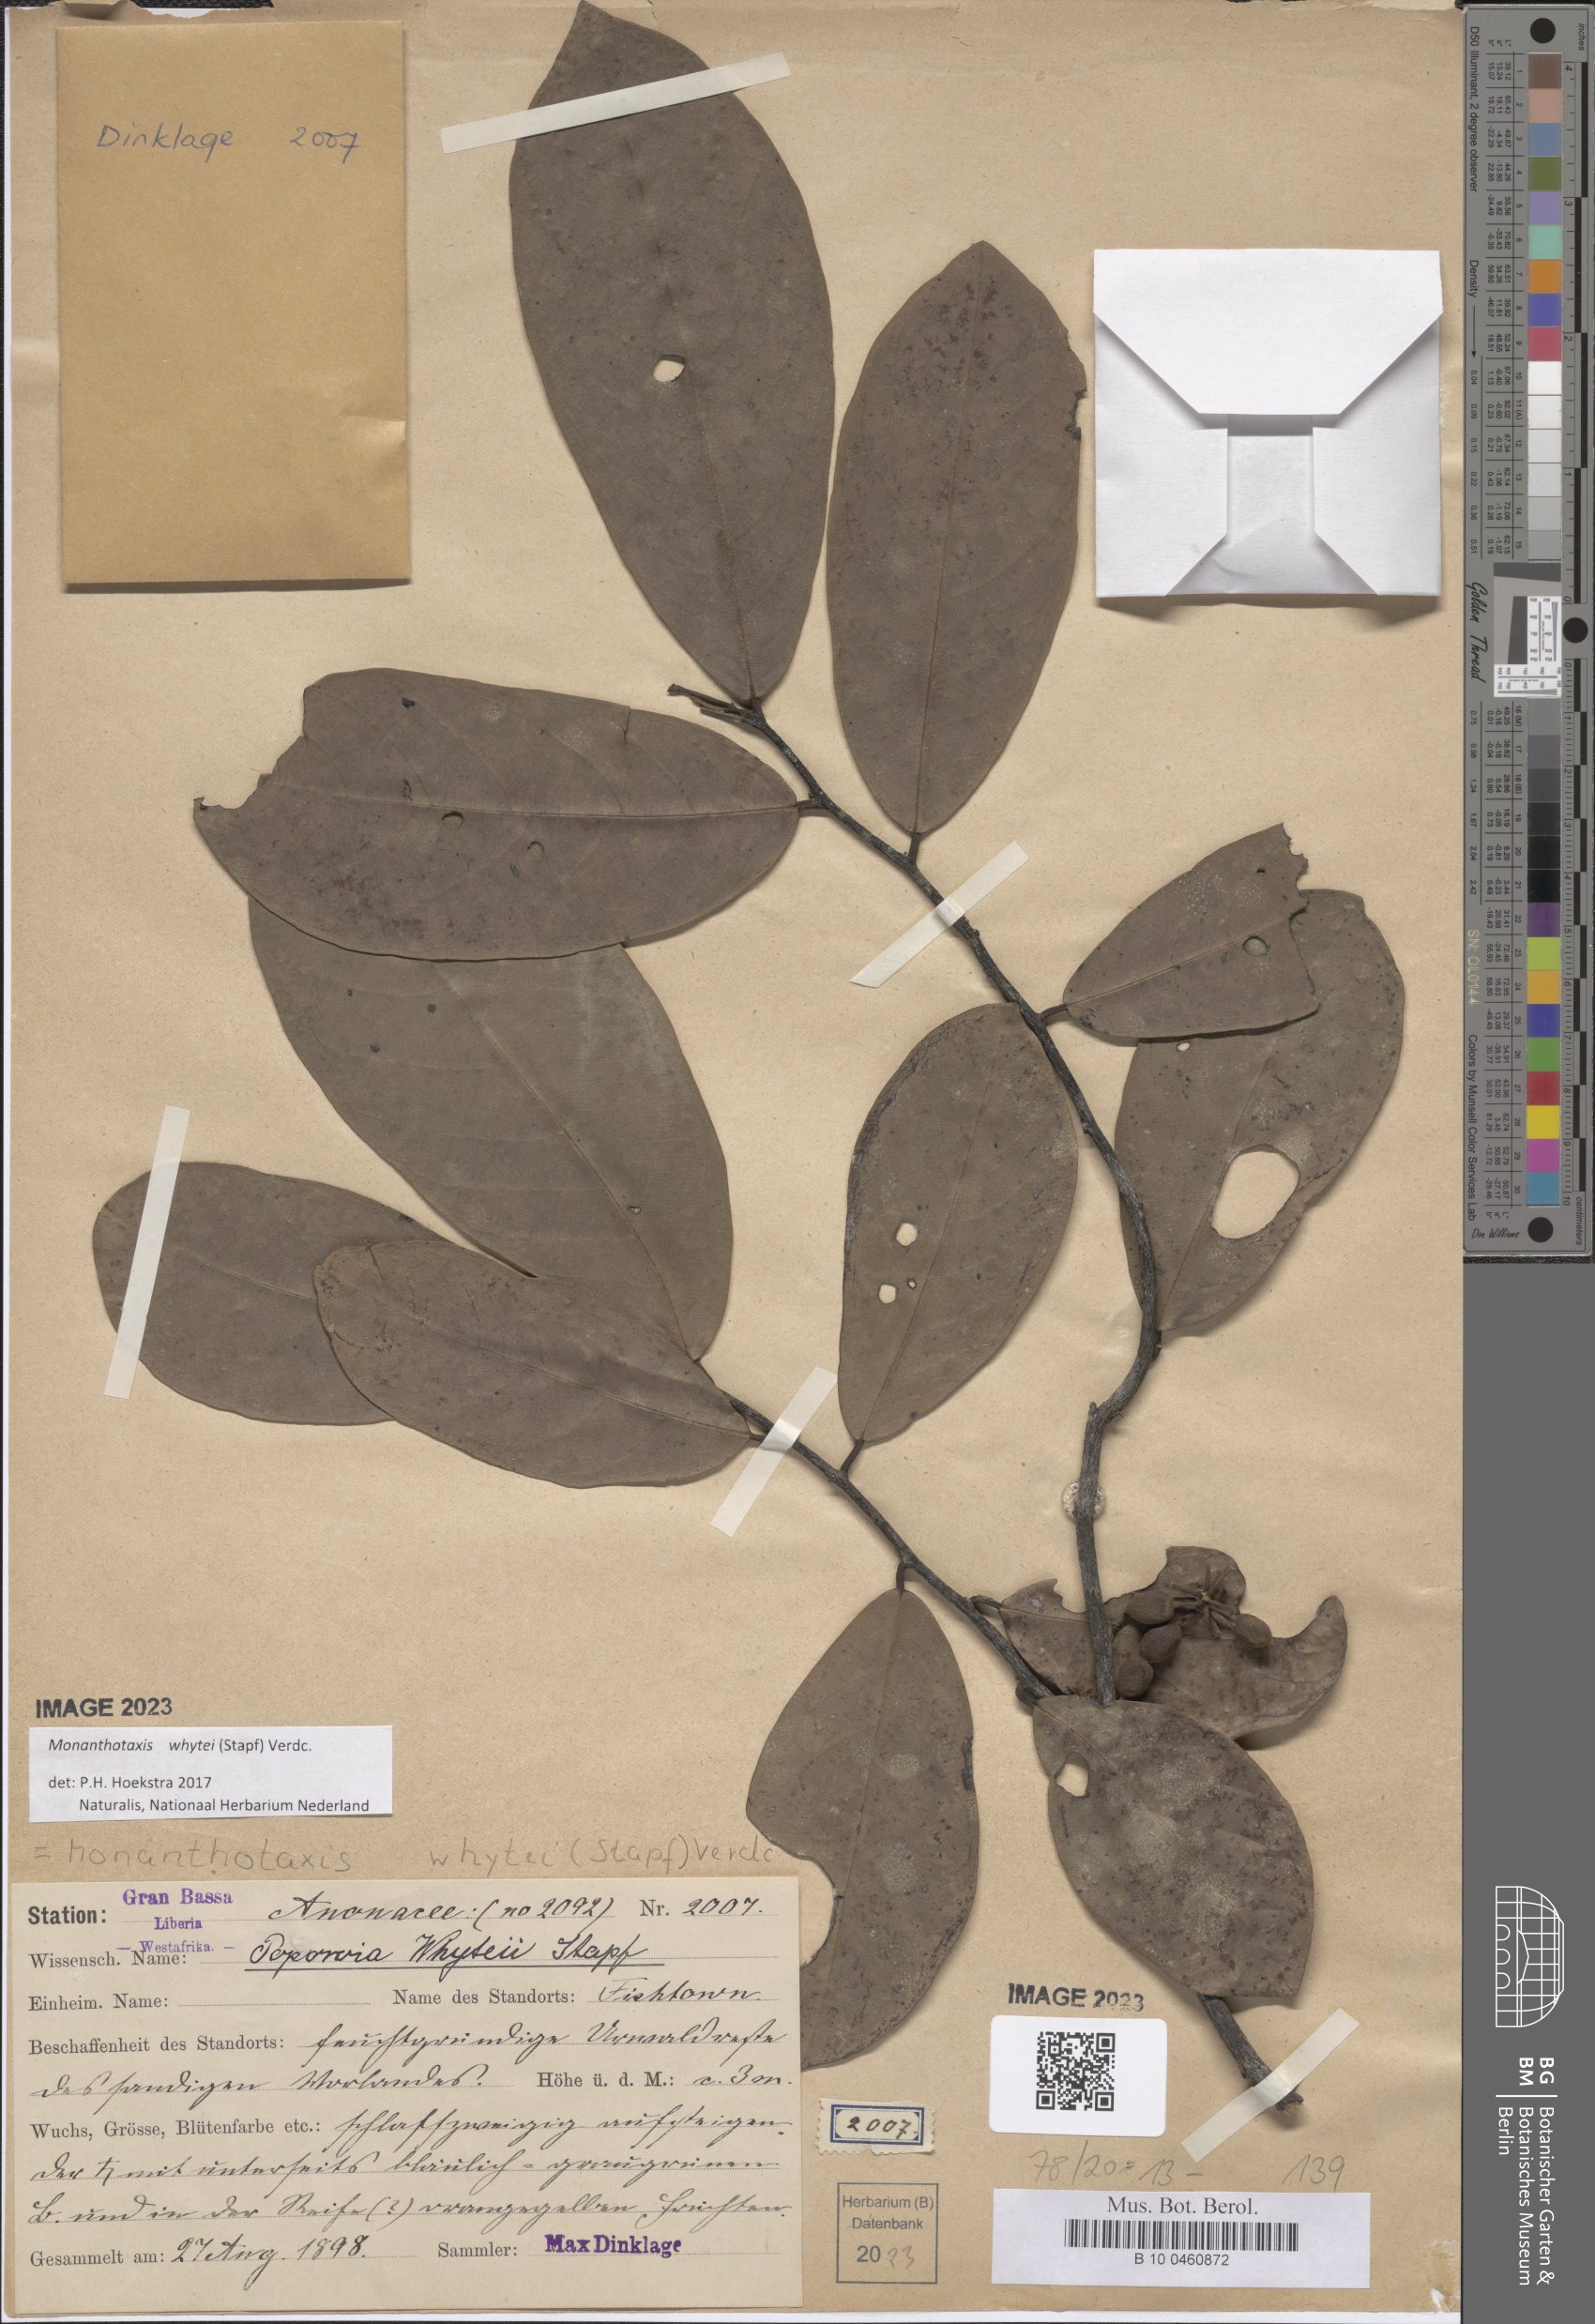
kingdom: Plantae
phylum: Tracheophyta
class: Magnoliopsida
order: Magnoliales
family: Annonaceae
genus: Monanthotaxis
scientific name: Monanthotaxis whytei
